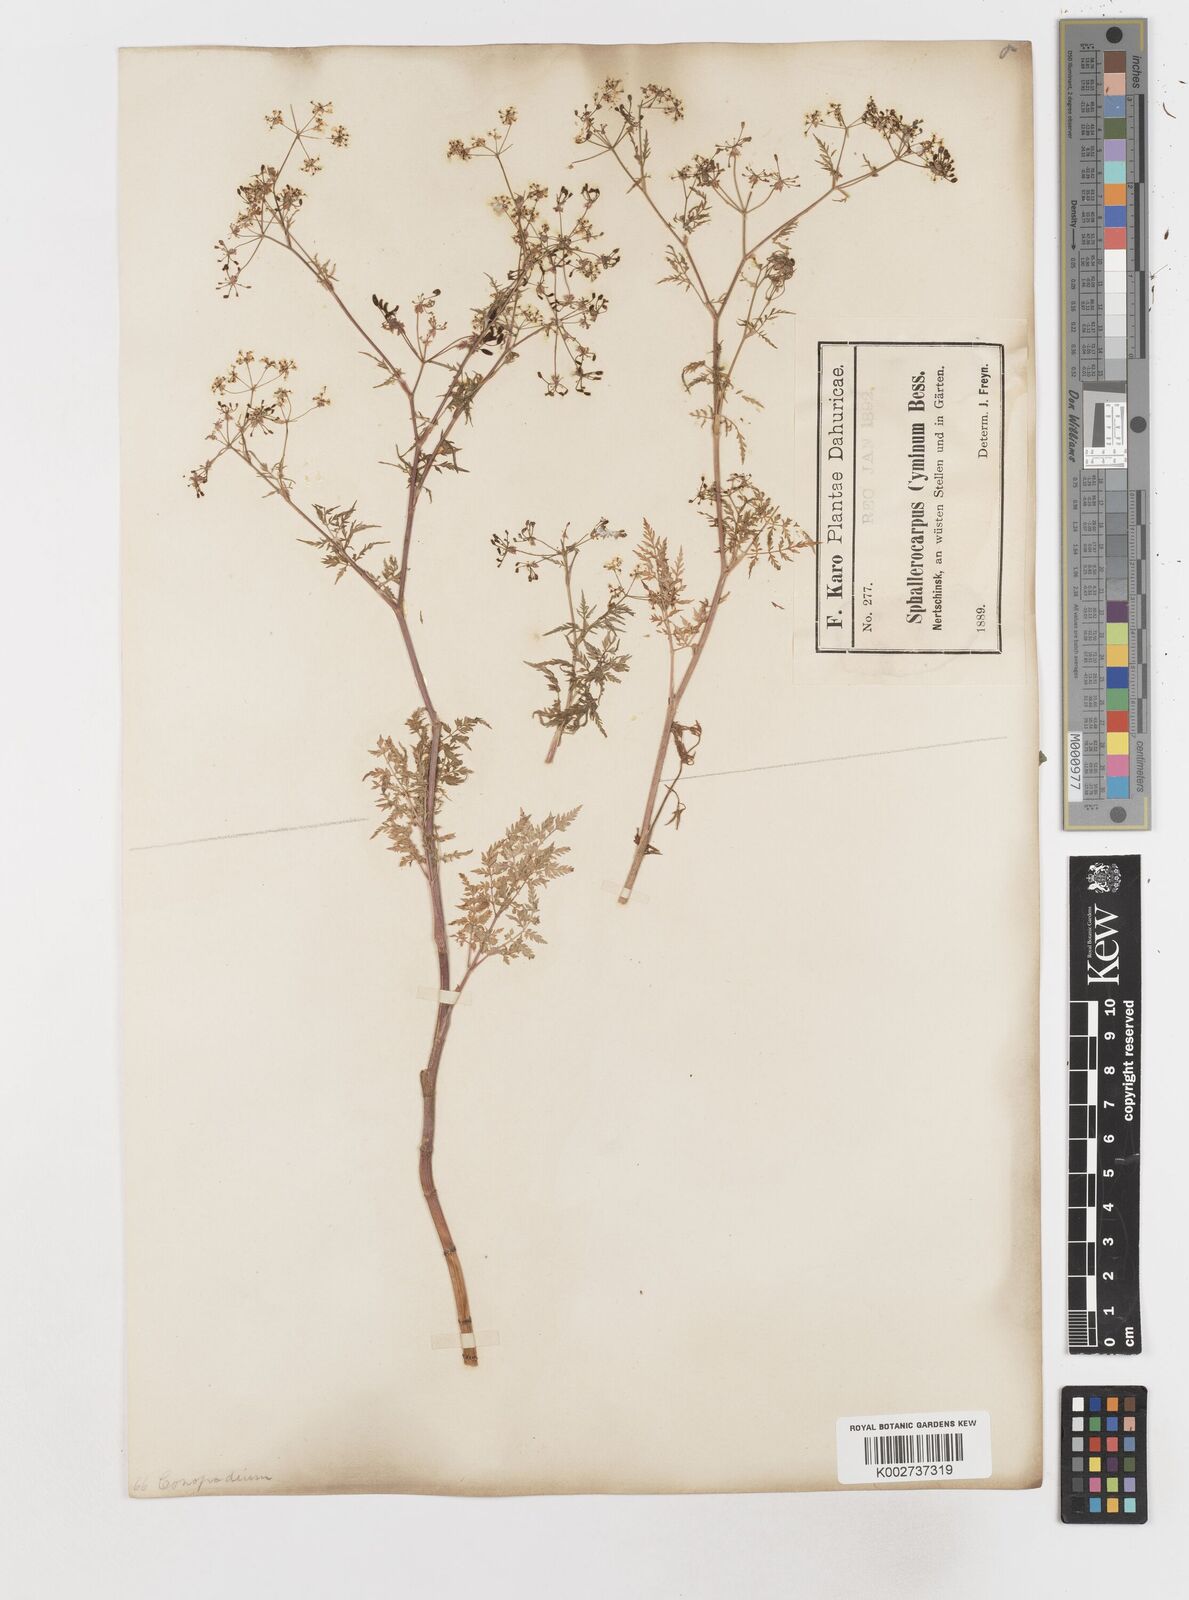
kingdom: Plantae
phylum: Tracheophyta
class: Magnoliopsida
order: Apiales
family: Apiaceae
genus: Sphallerocarpus
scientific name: Sphallerocarpus gracilis
